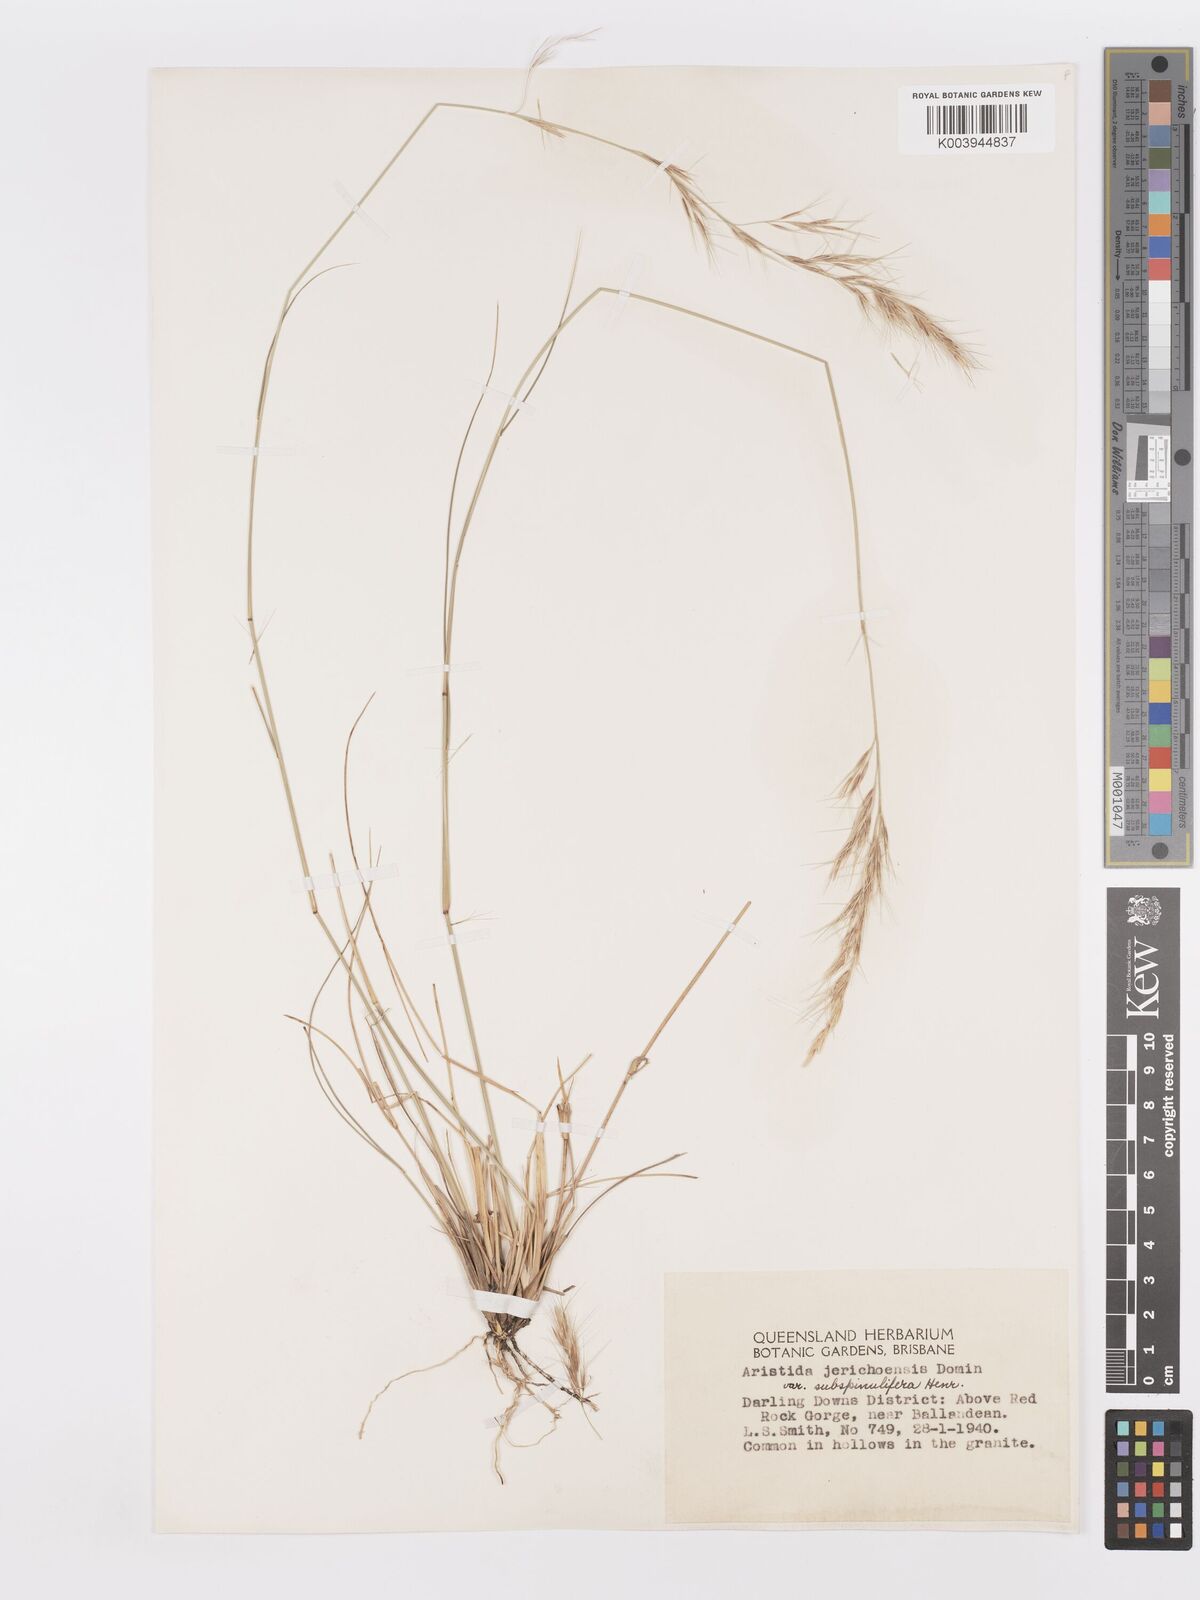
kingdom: Plantae
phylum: Tracheophyta
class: Liliopsida
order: Poales
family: Poaceae
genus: Aristida
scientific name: Aristida jerichoensis
